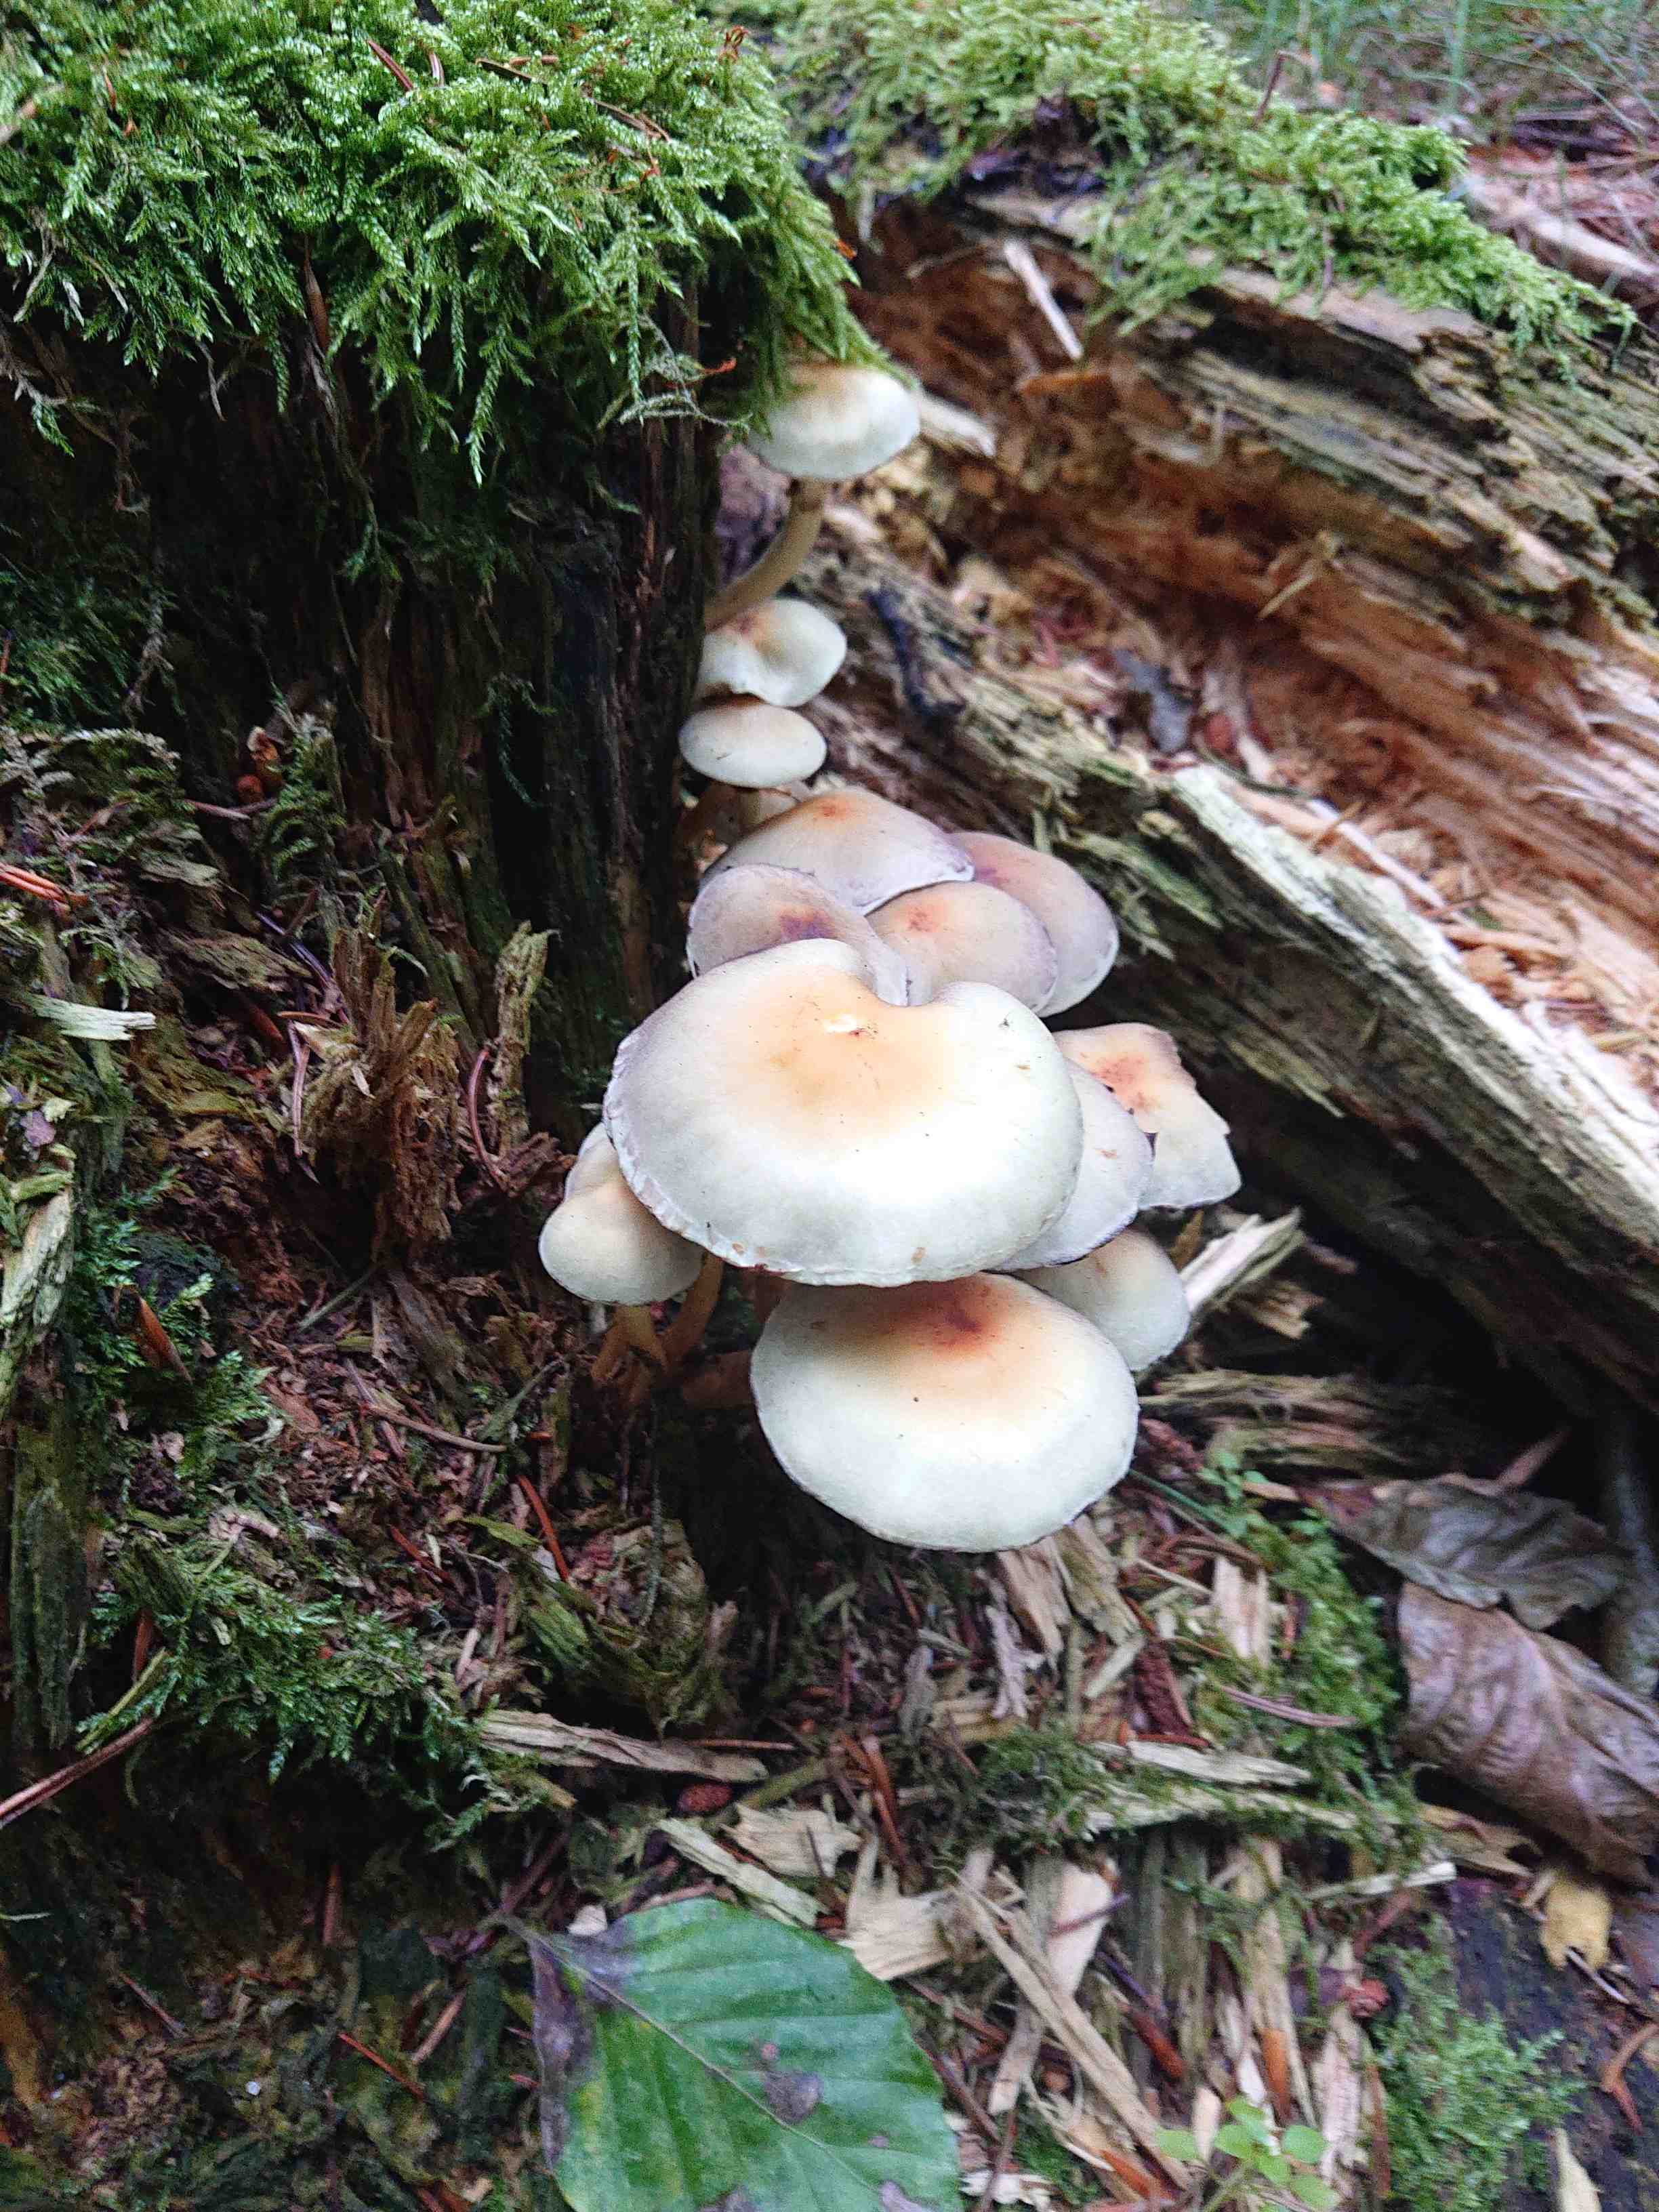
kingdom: Fungi
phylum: Basidiomycota
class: Agaricomycetes
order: Agaricales
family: Strophariaceae
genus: Hypholoma
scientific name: Hypholoma fasciculare
